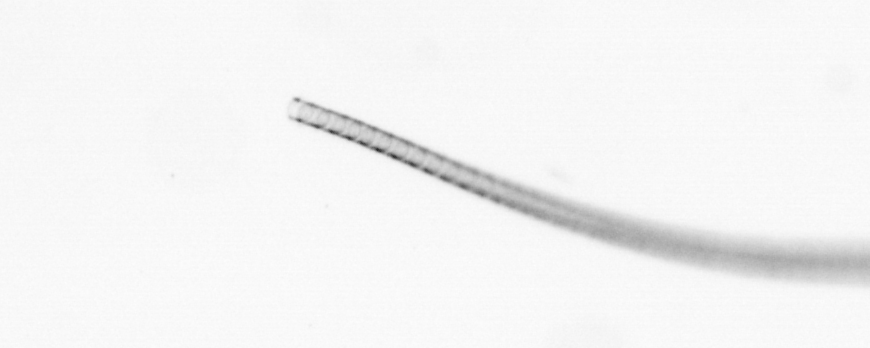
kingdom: Chromista
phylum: Ochrophyta
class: Bacillariophyceae
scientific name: Bacillariophyceae
